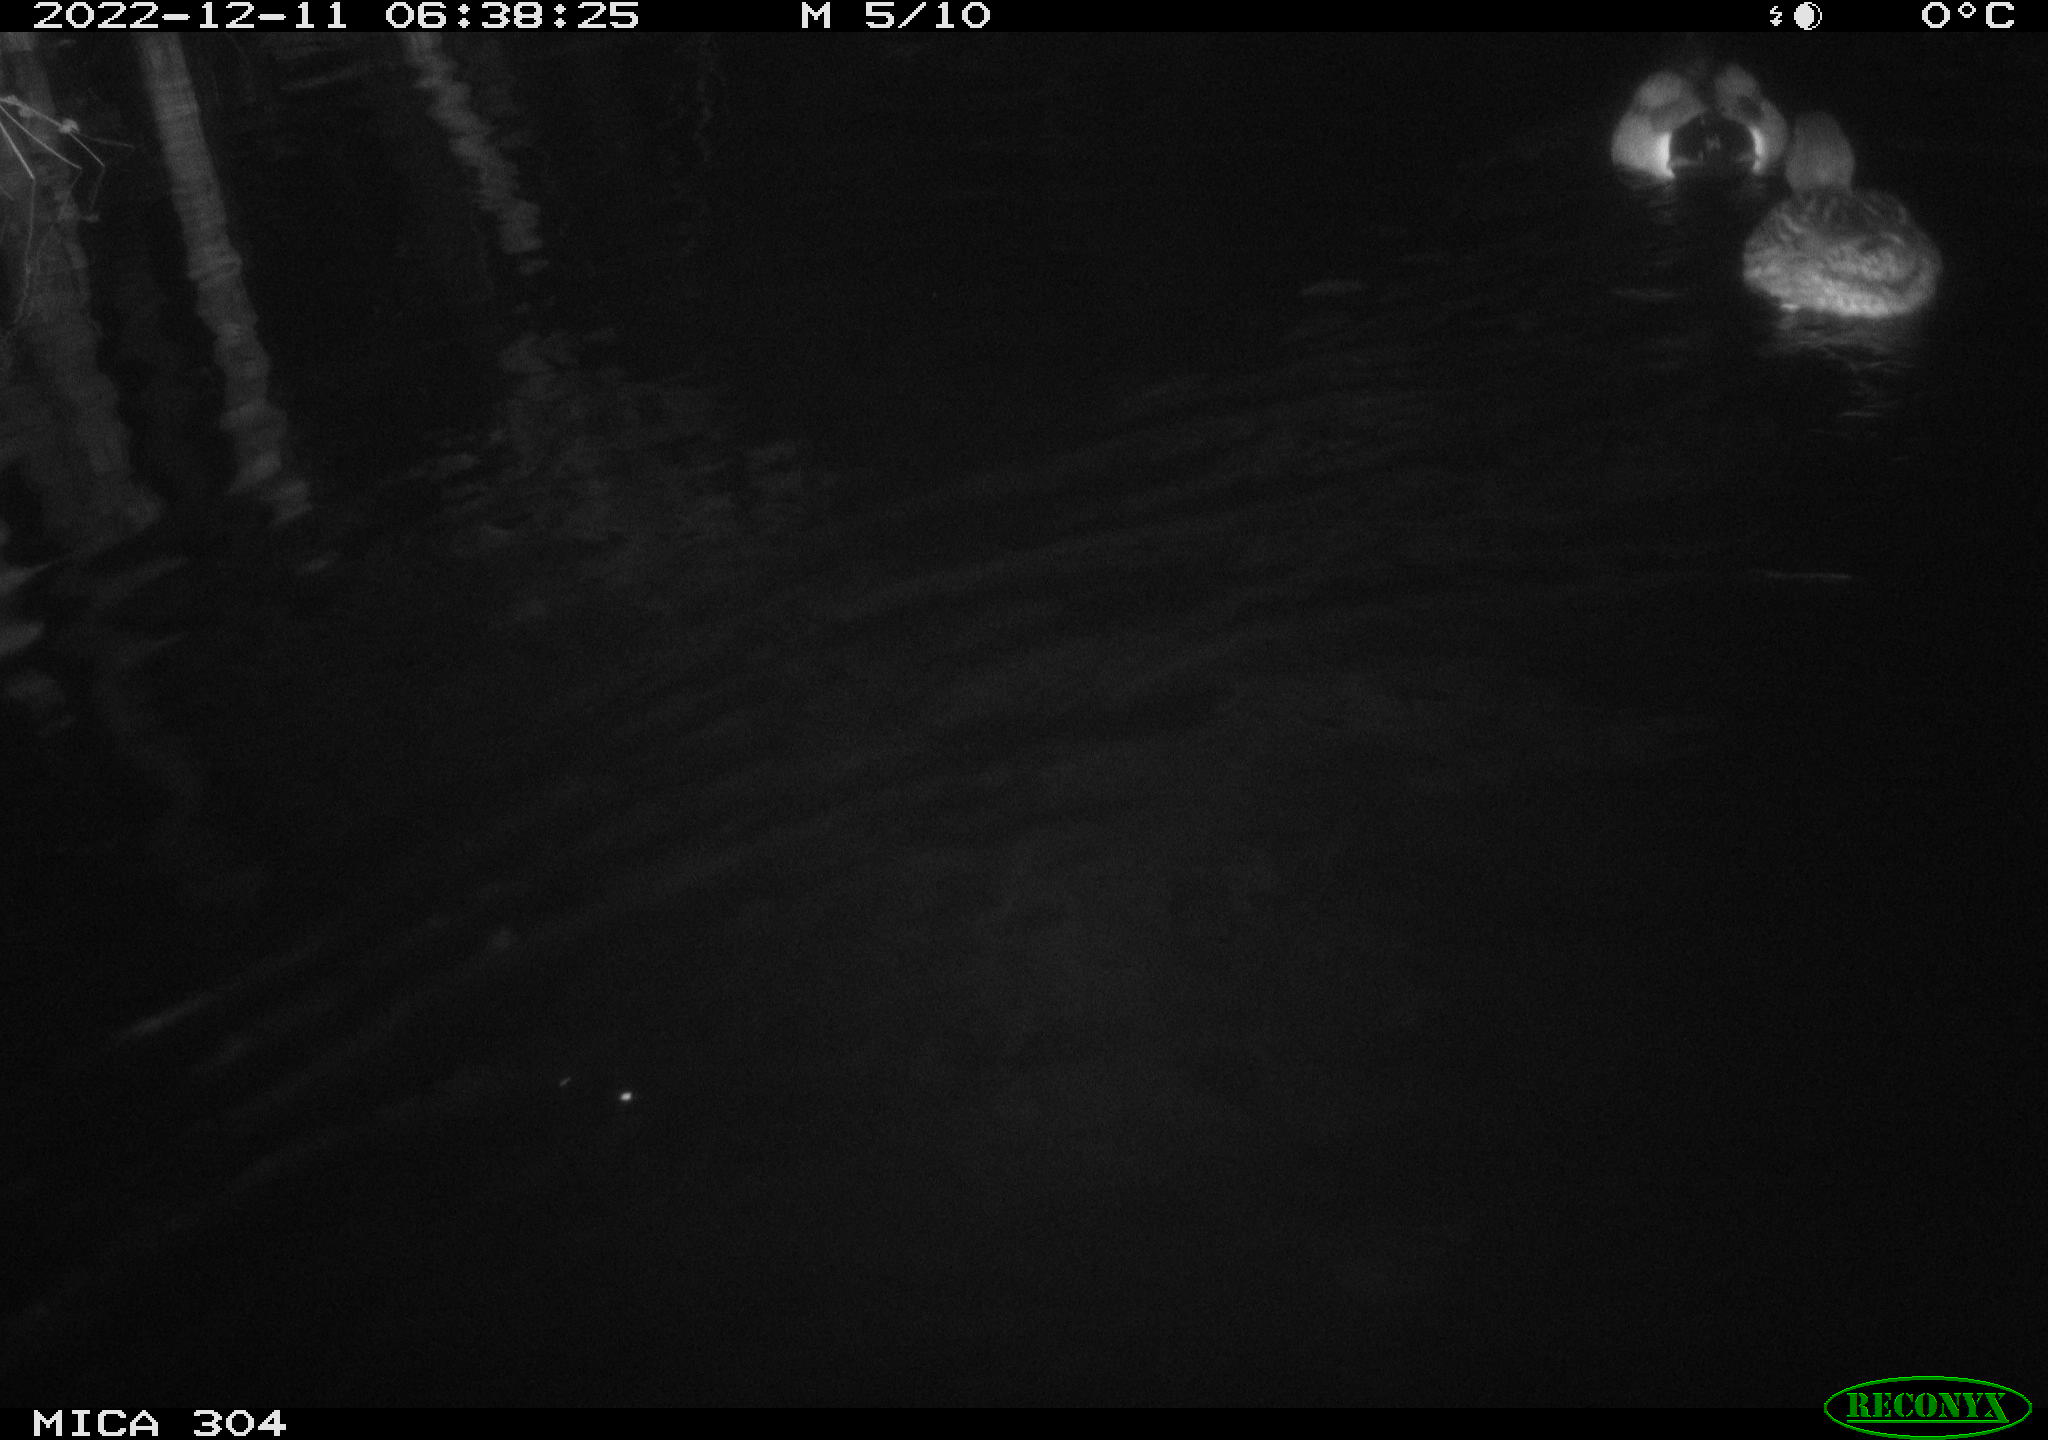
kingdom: Animalia
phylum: Chordata
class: Aves
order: Anseriformes
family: Anatidae
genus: Anas
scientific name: Anas
